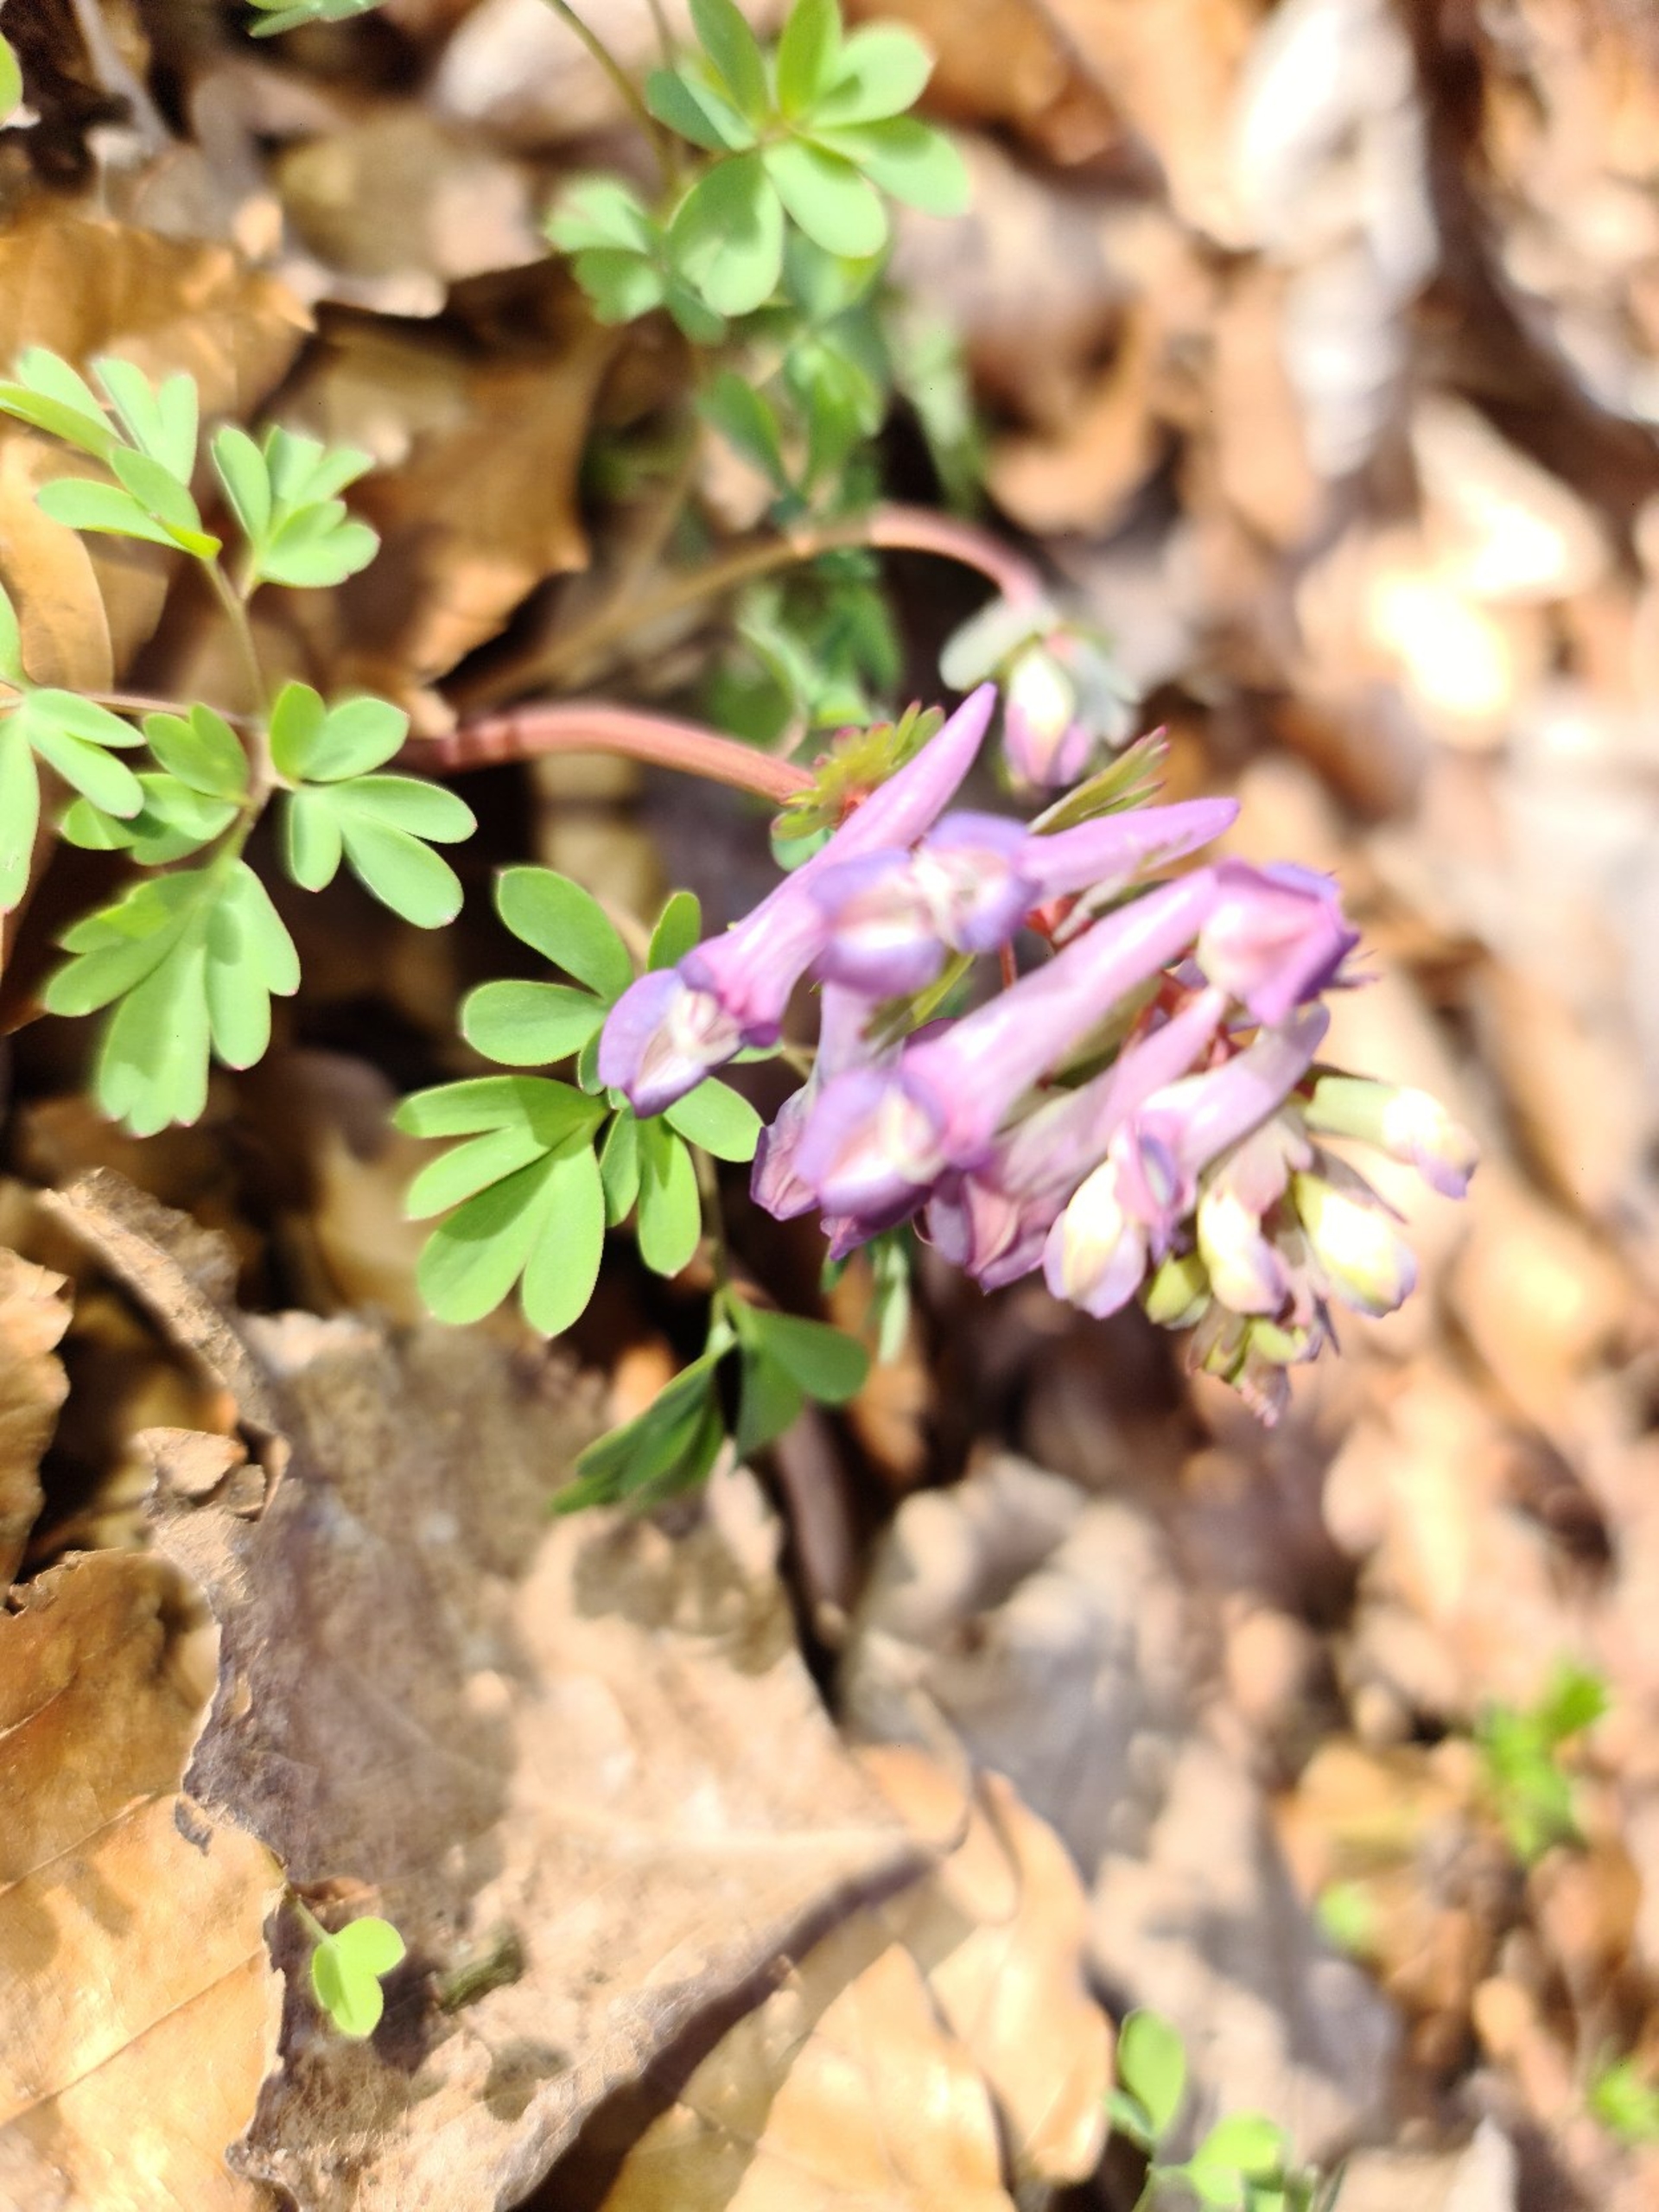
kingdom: Plantae
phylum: Tracheophyta
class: Magnoliopsida
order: Ranunculales
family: Papaveraceae
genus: Corydalis
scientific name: Corydalis solida
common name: Langstilket lærkespore
